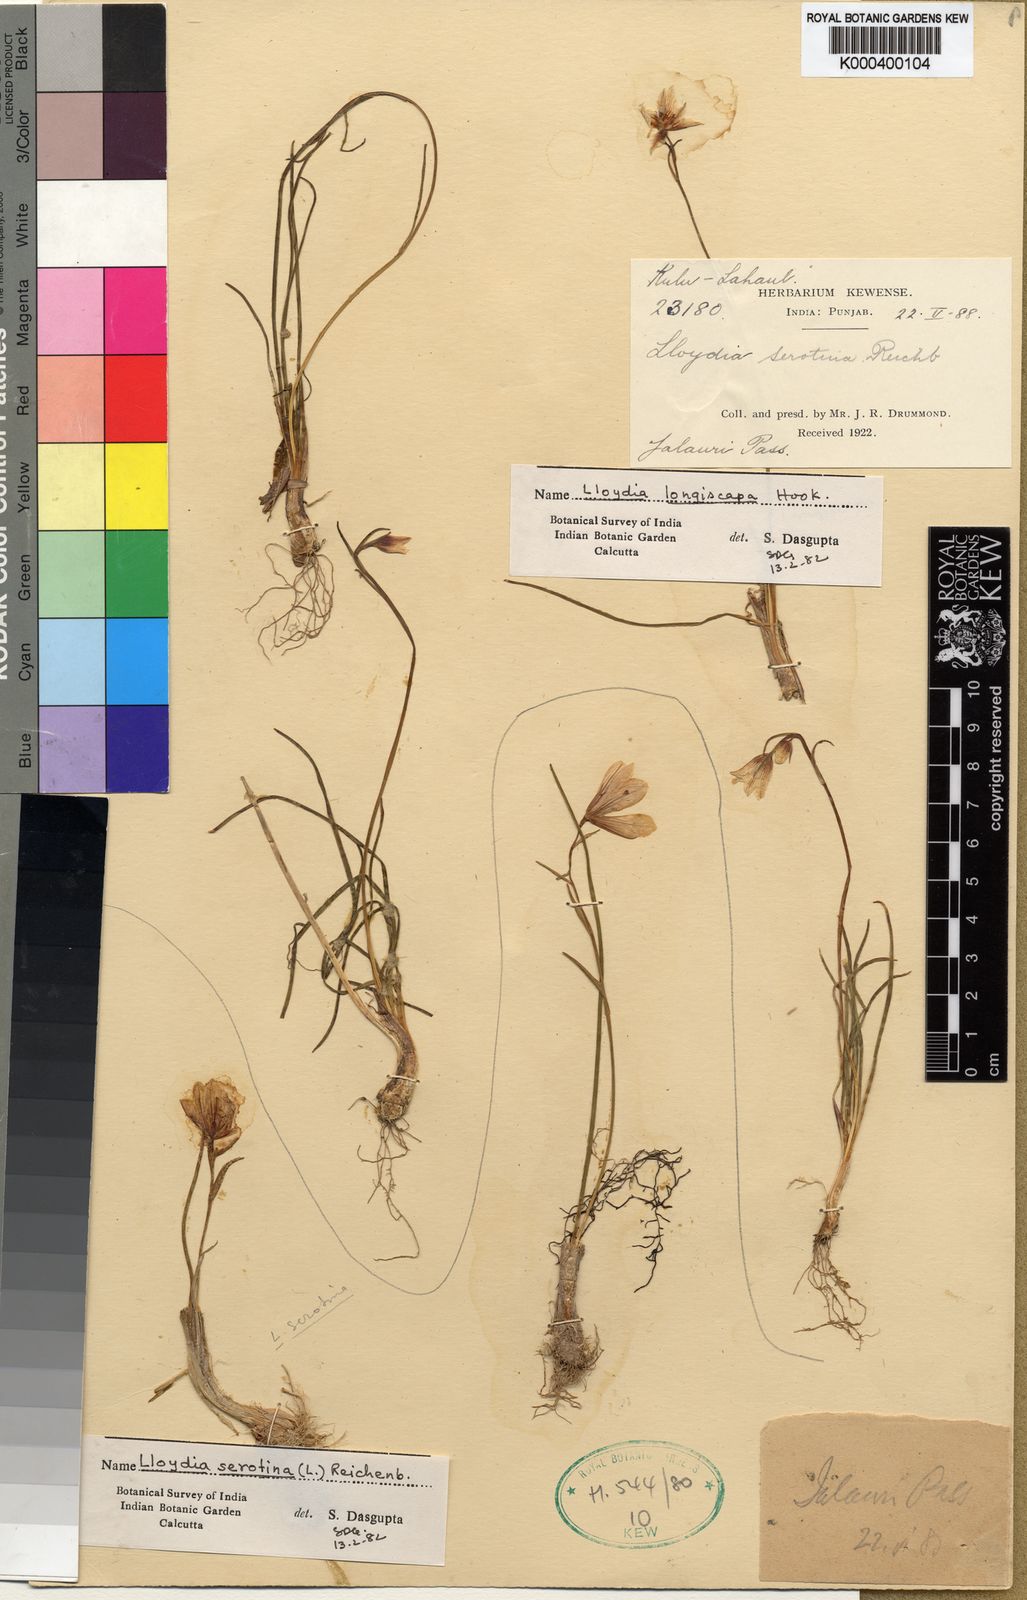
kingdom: Plantae
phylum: Tracheophyta
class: Liliopsida
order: Liliales
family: Liliaceae
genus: Gagea
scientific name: Gagea lasiantha
